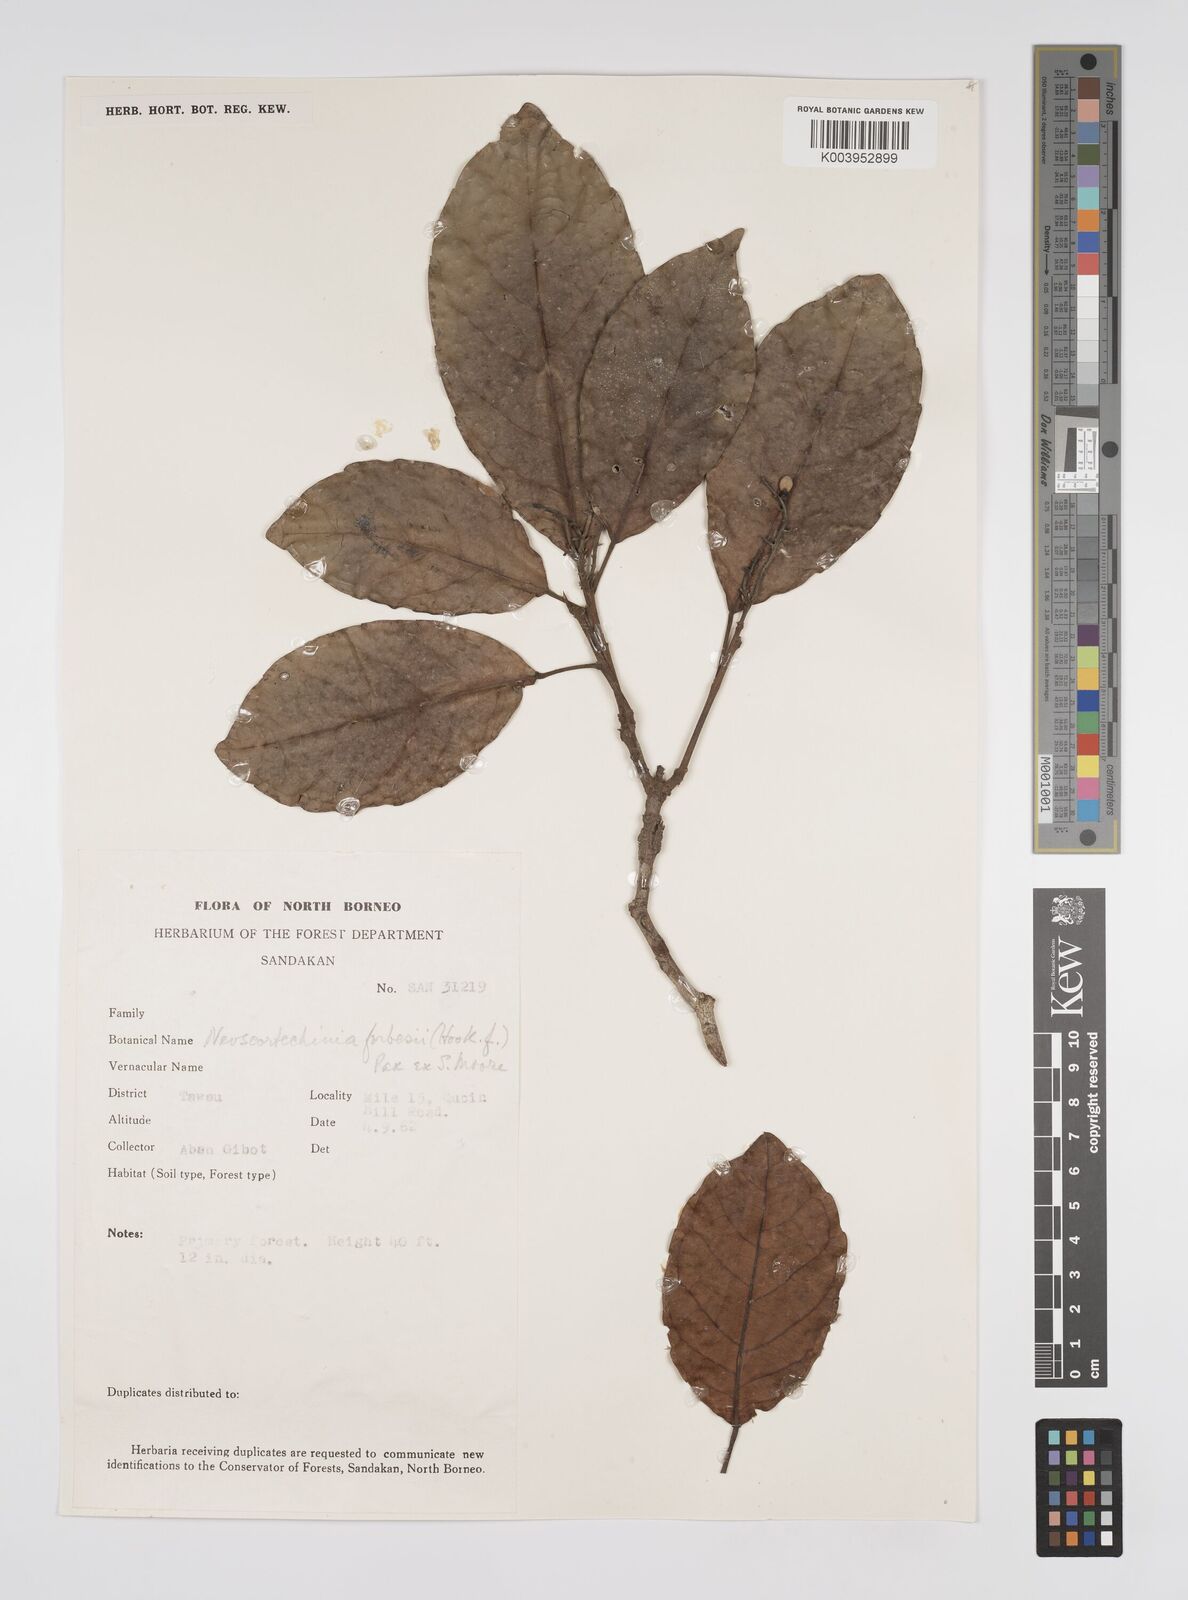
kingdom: Plantae
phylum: Tracheophyta
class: Magnoliopsida
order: Malpighiales
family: Euphorbiaceae
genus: Neoscortechinia
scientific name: Neoscortechinia philippinensis
